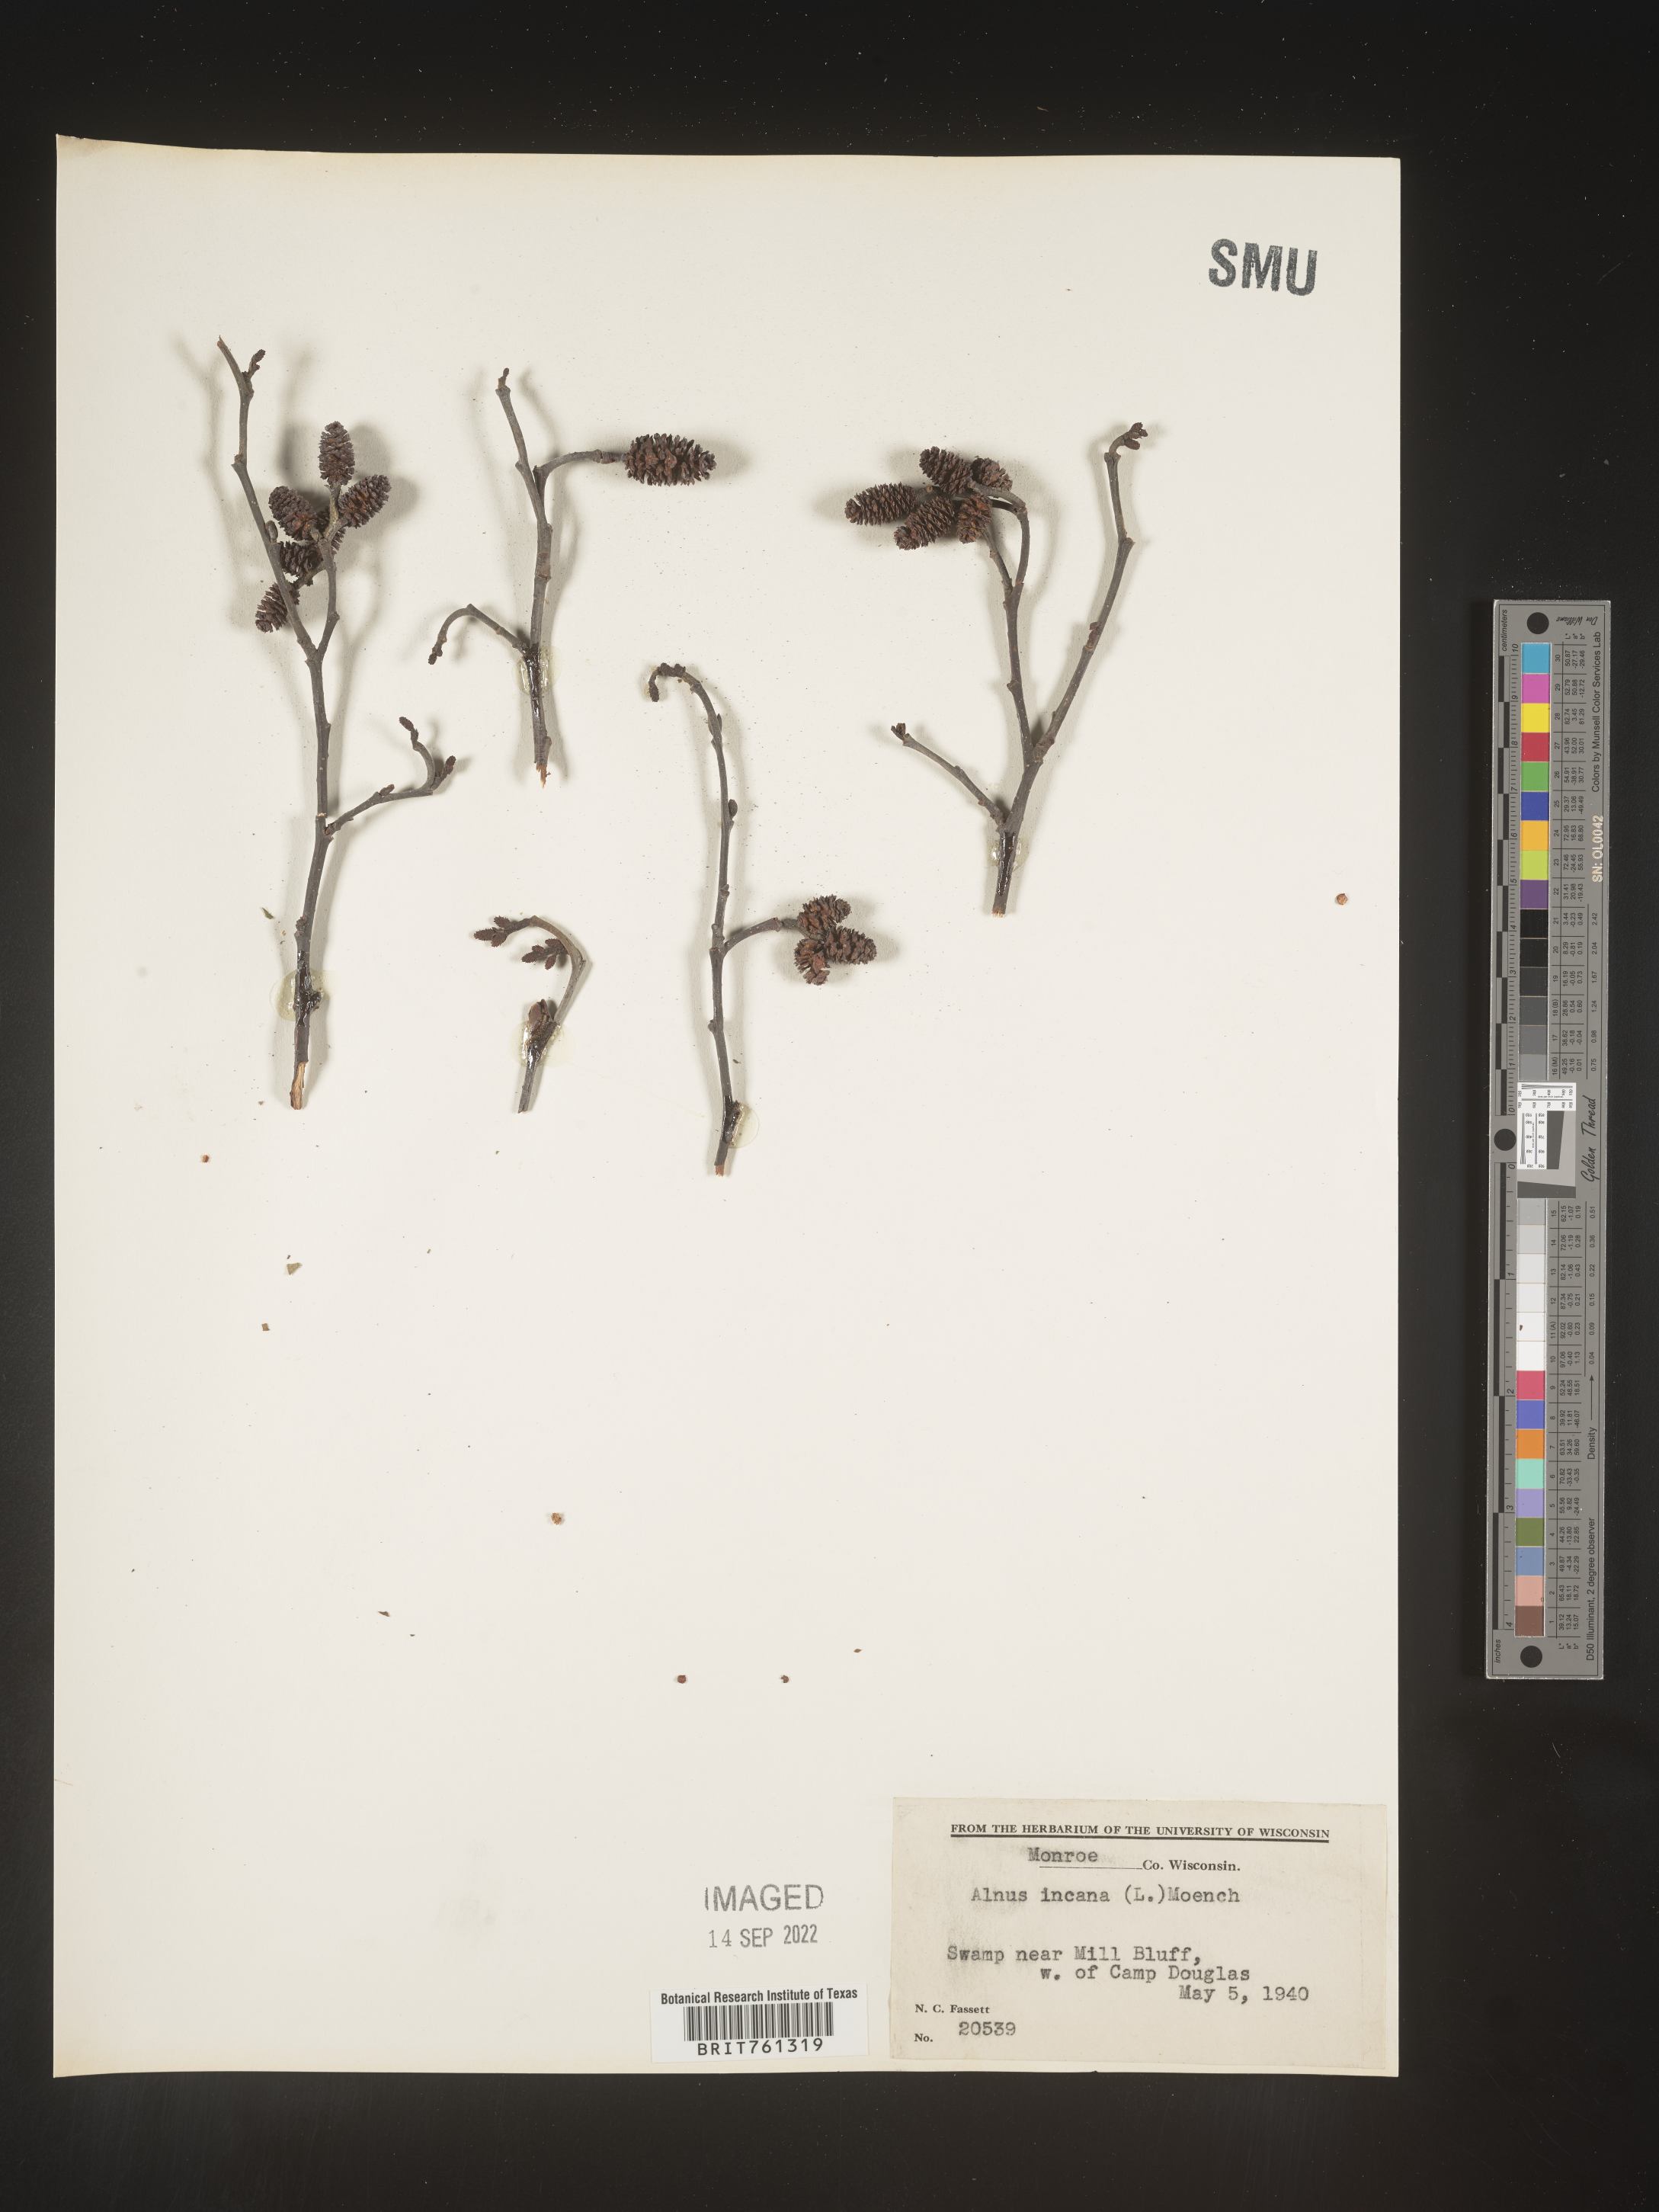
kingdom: Plantae
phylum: Tracheophyta
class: Magnoliopsida
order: Fagales
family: Betulaceae
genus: Alnus
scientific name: Alnus incana
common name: Grey alder
